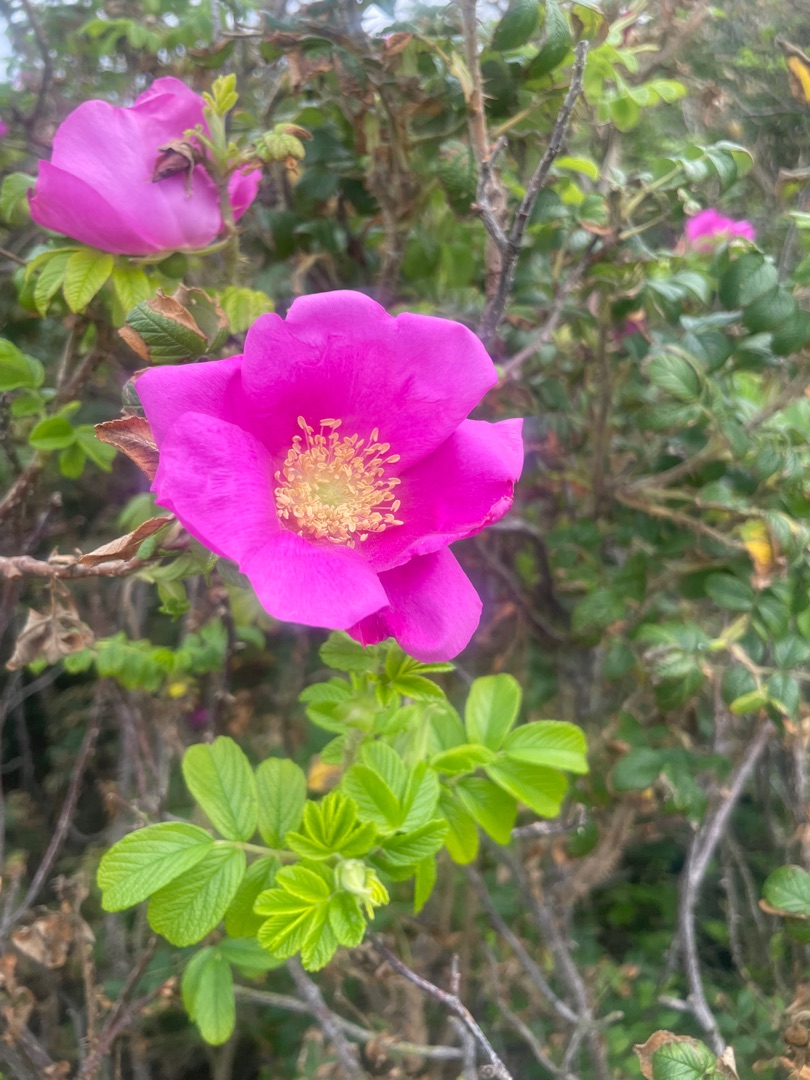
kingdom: Plantae
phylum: Tracheophyta
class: Magnoliopsida
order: Rosales
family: Rosaceae
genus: Rosa
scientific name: Rosa rugosa
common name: Rynket rose
